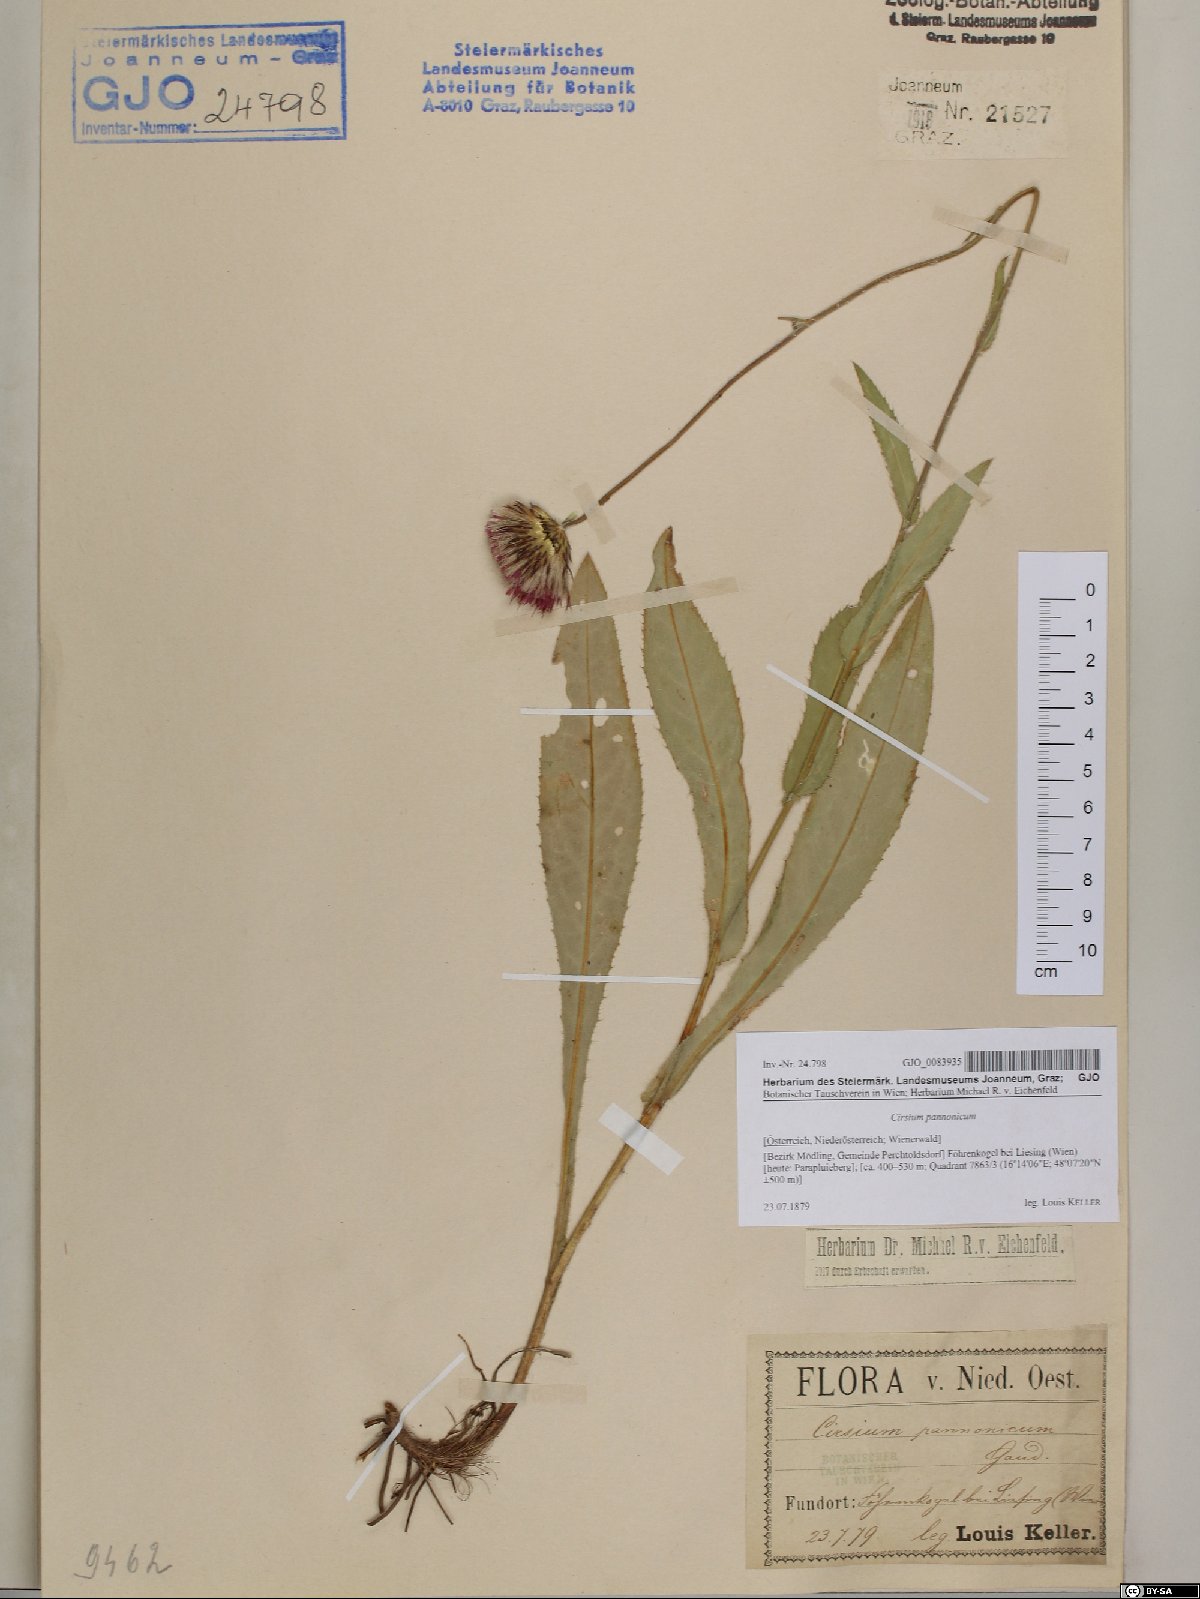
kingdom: Plantae
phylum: Tracheophyta
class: Magnoliopsida
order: Asterales
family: Asteraceae
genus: Cirsium
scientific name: Cirsium pannonicum
